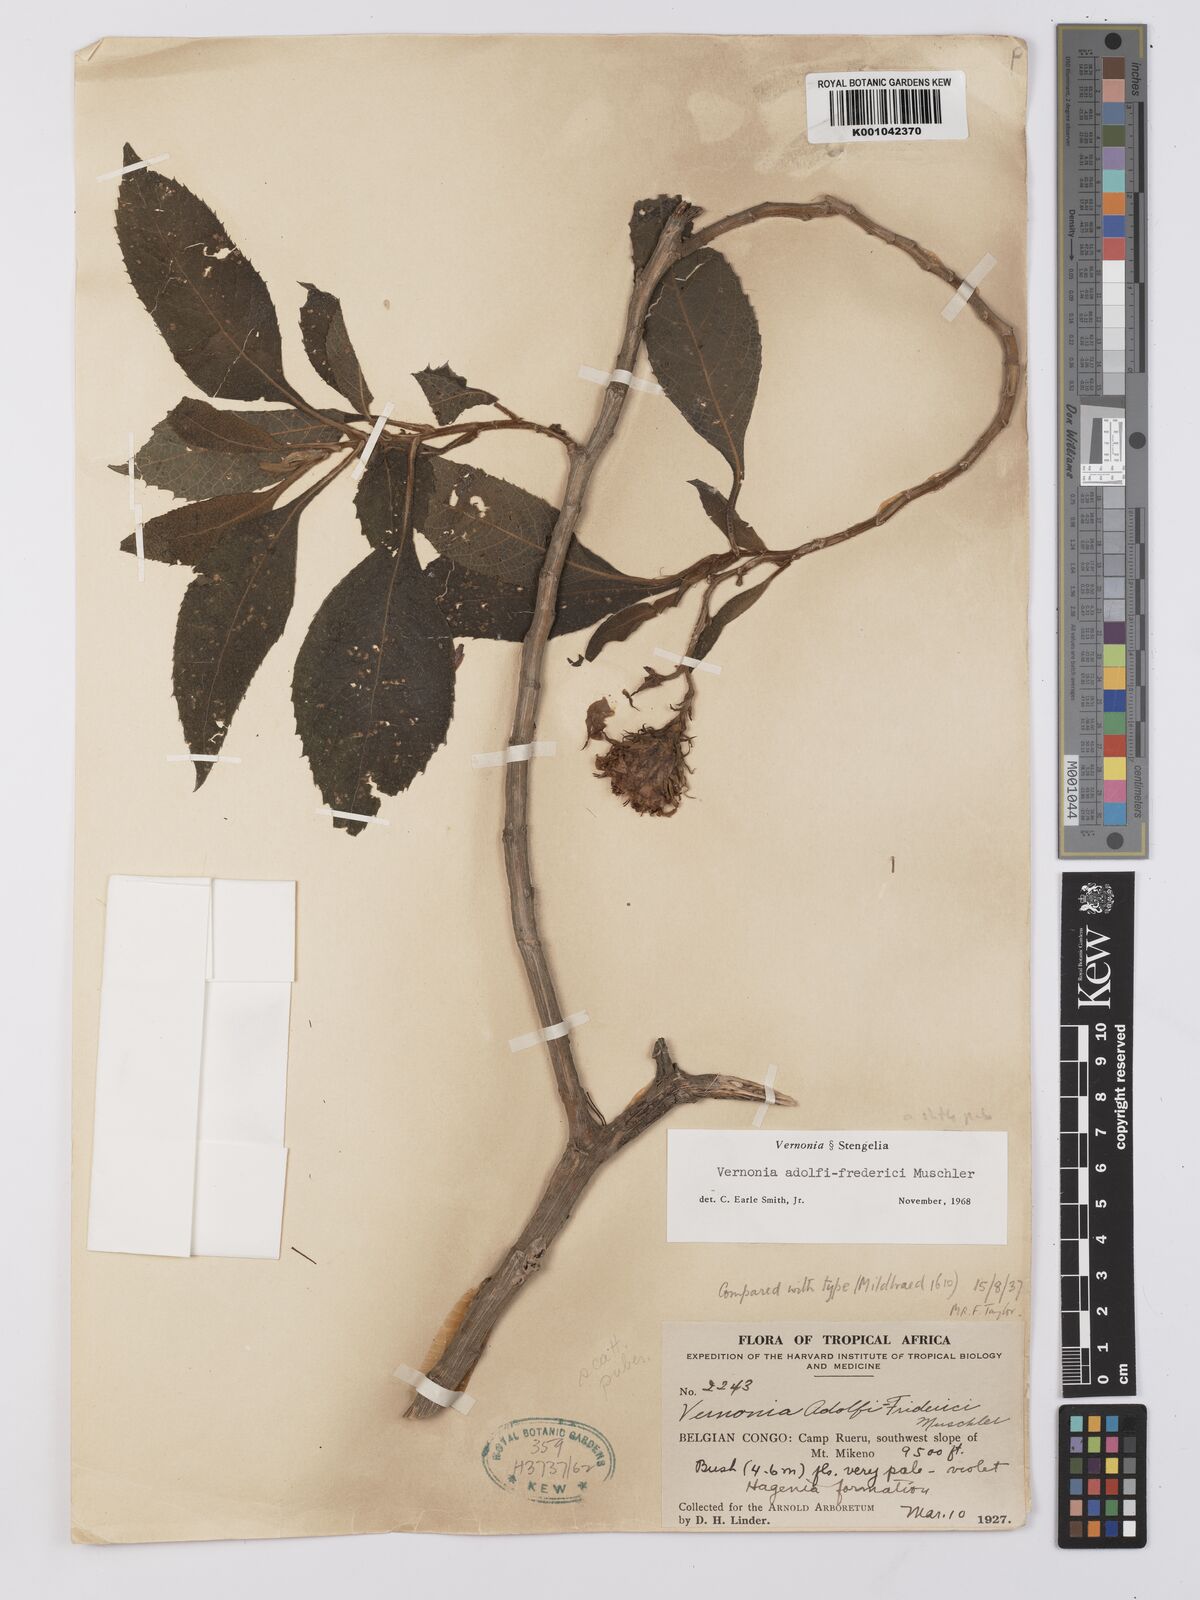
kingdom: Plantae
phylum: Tracheophyta
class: Magnoliopsida
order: Asterales
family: Asteraceae
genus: Baccharoides
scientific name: Baccharoides calvoana
